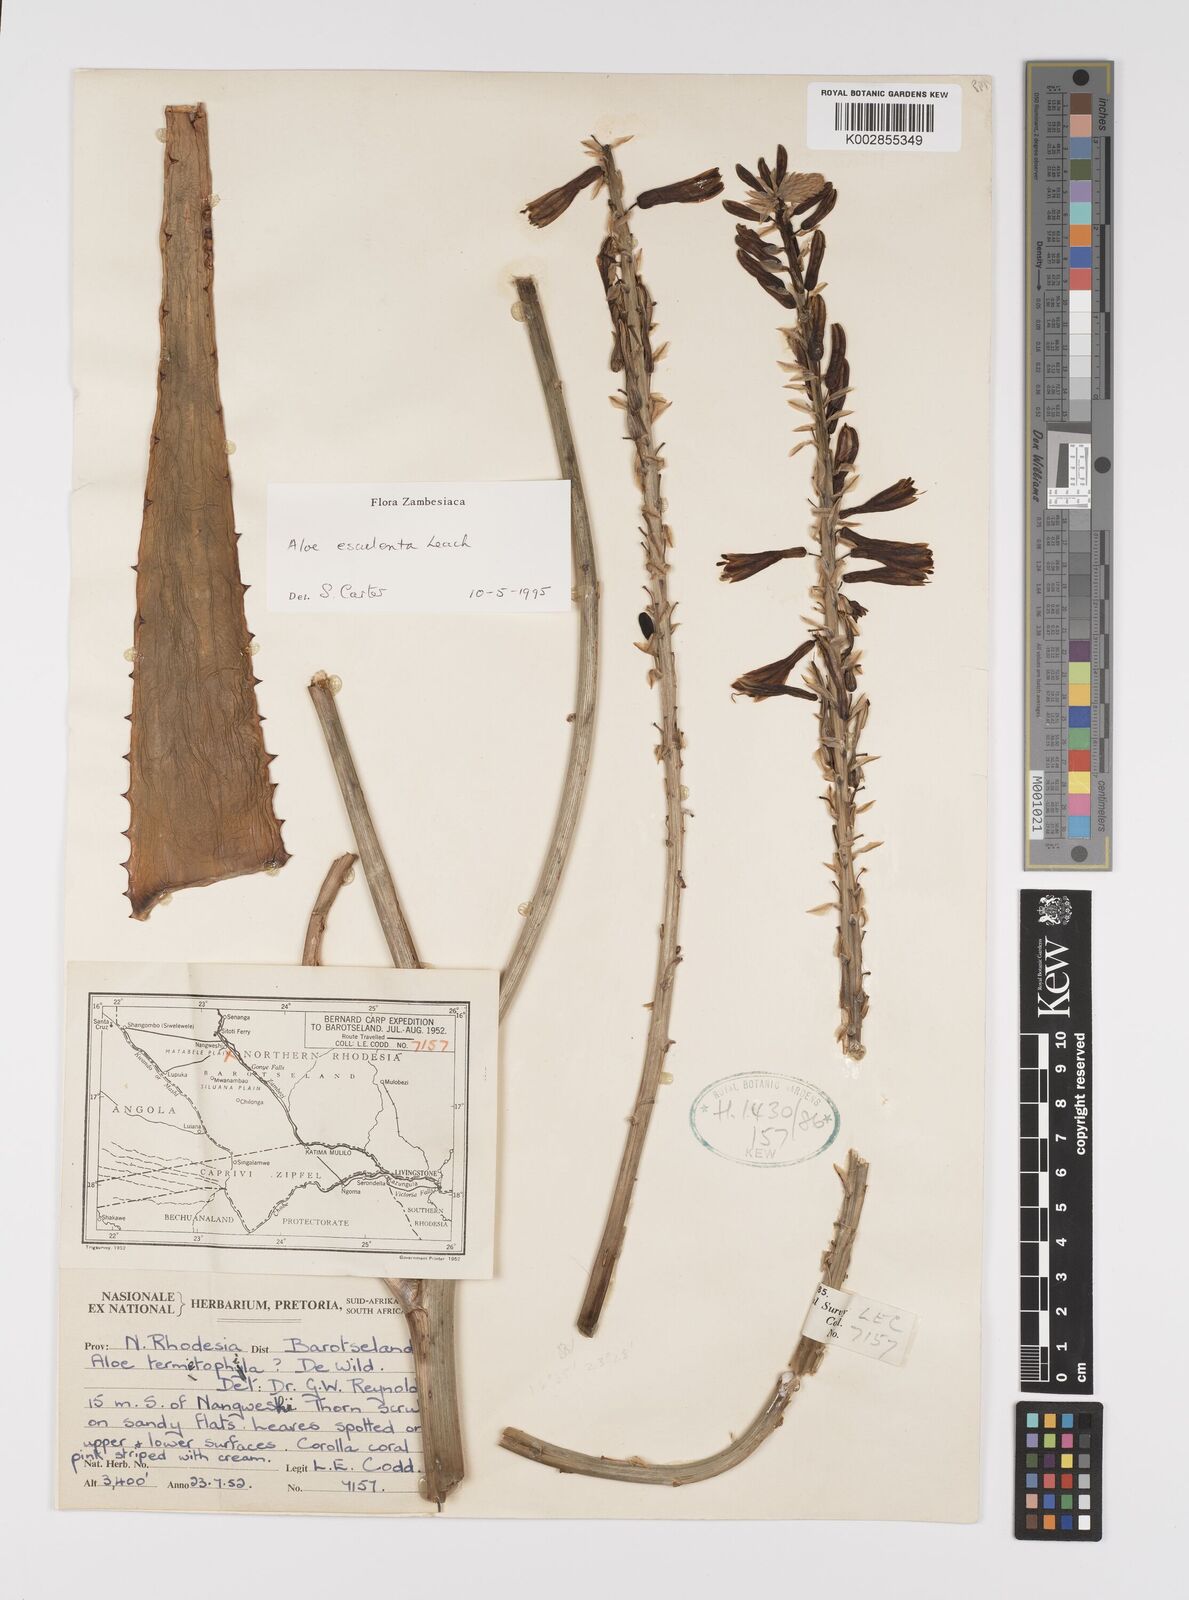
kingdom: Plantae
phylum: Tracheophyta
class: Liliopsida
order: Asparagales
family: Asphodelaceae
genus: Aloe
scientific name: Aloe esculenta
